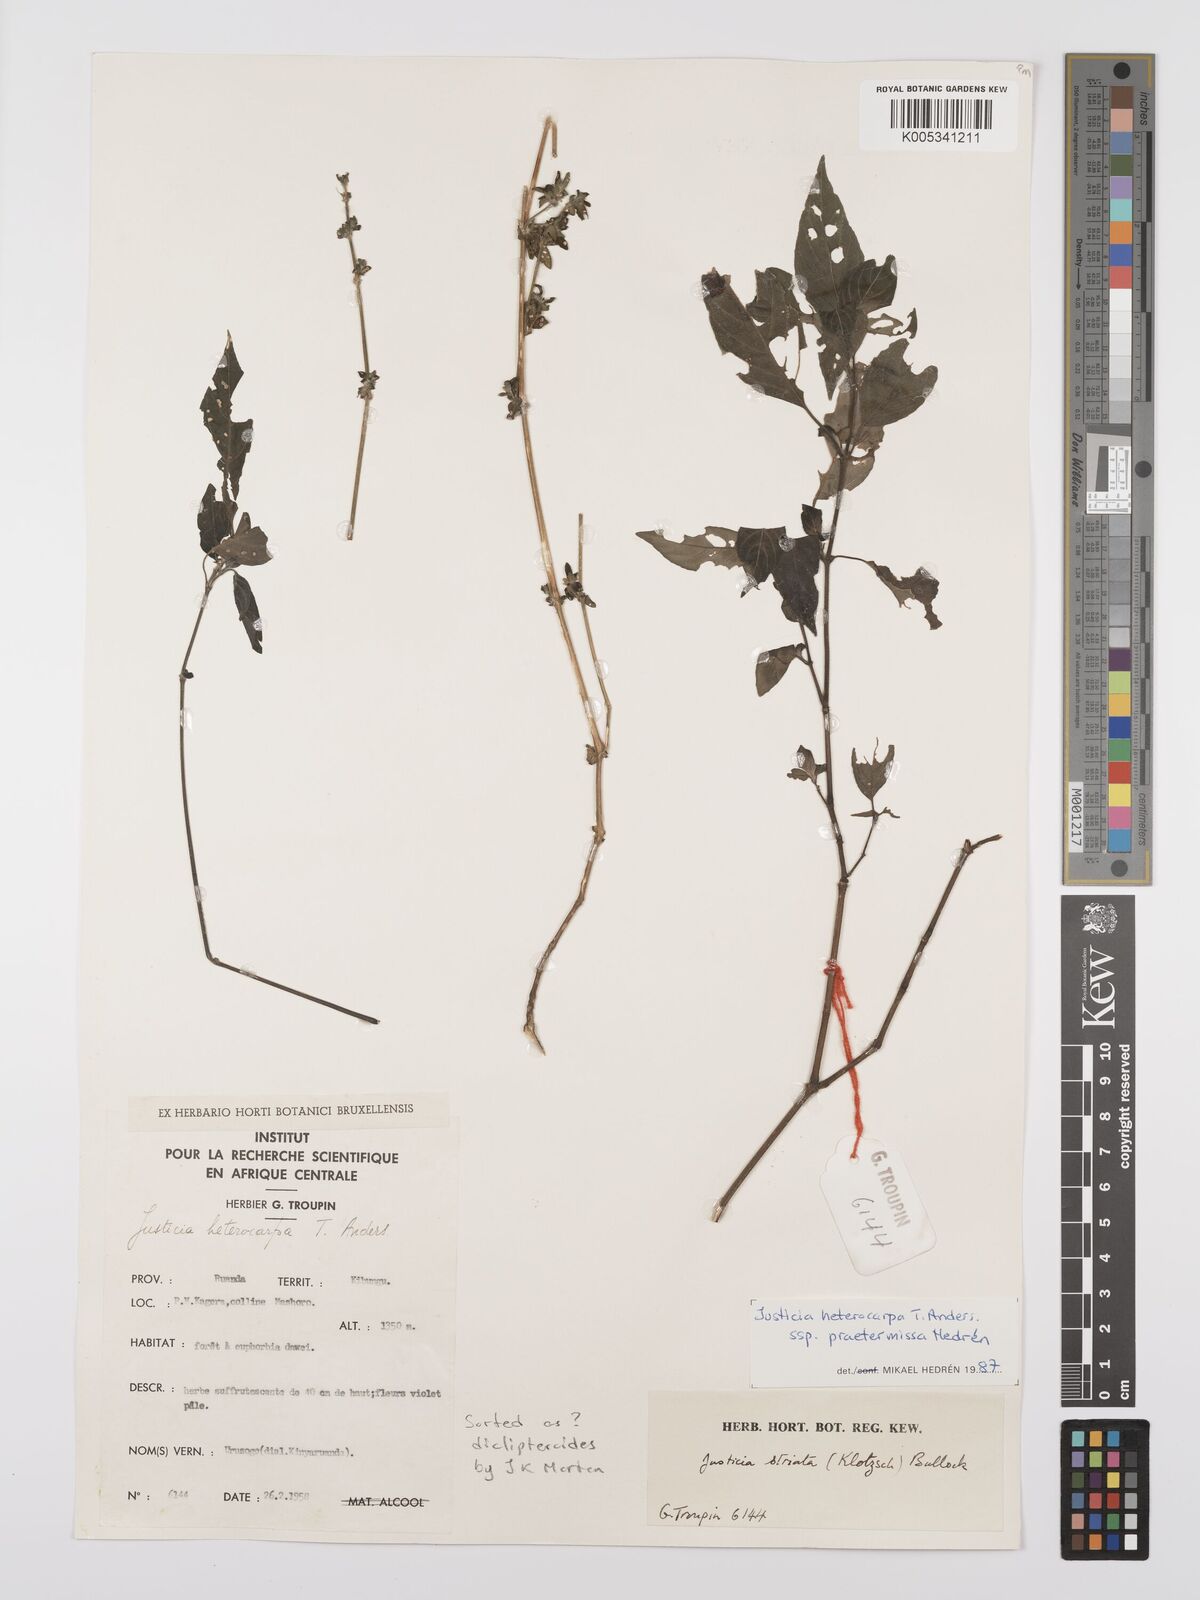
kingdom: Plantae
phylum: Tracheophyta
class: Magnoliopsida
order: Lamiales
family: Acanthaceae
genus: Justicia
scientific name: Justicia heterocarpa
